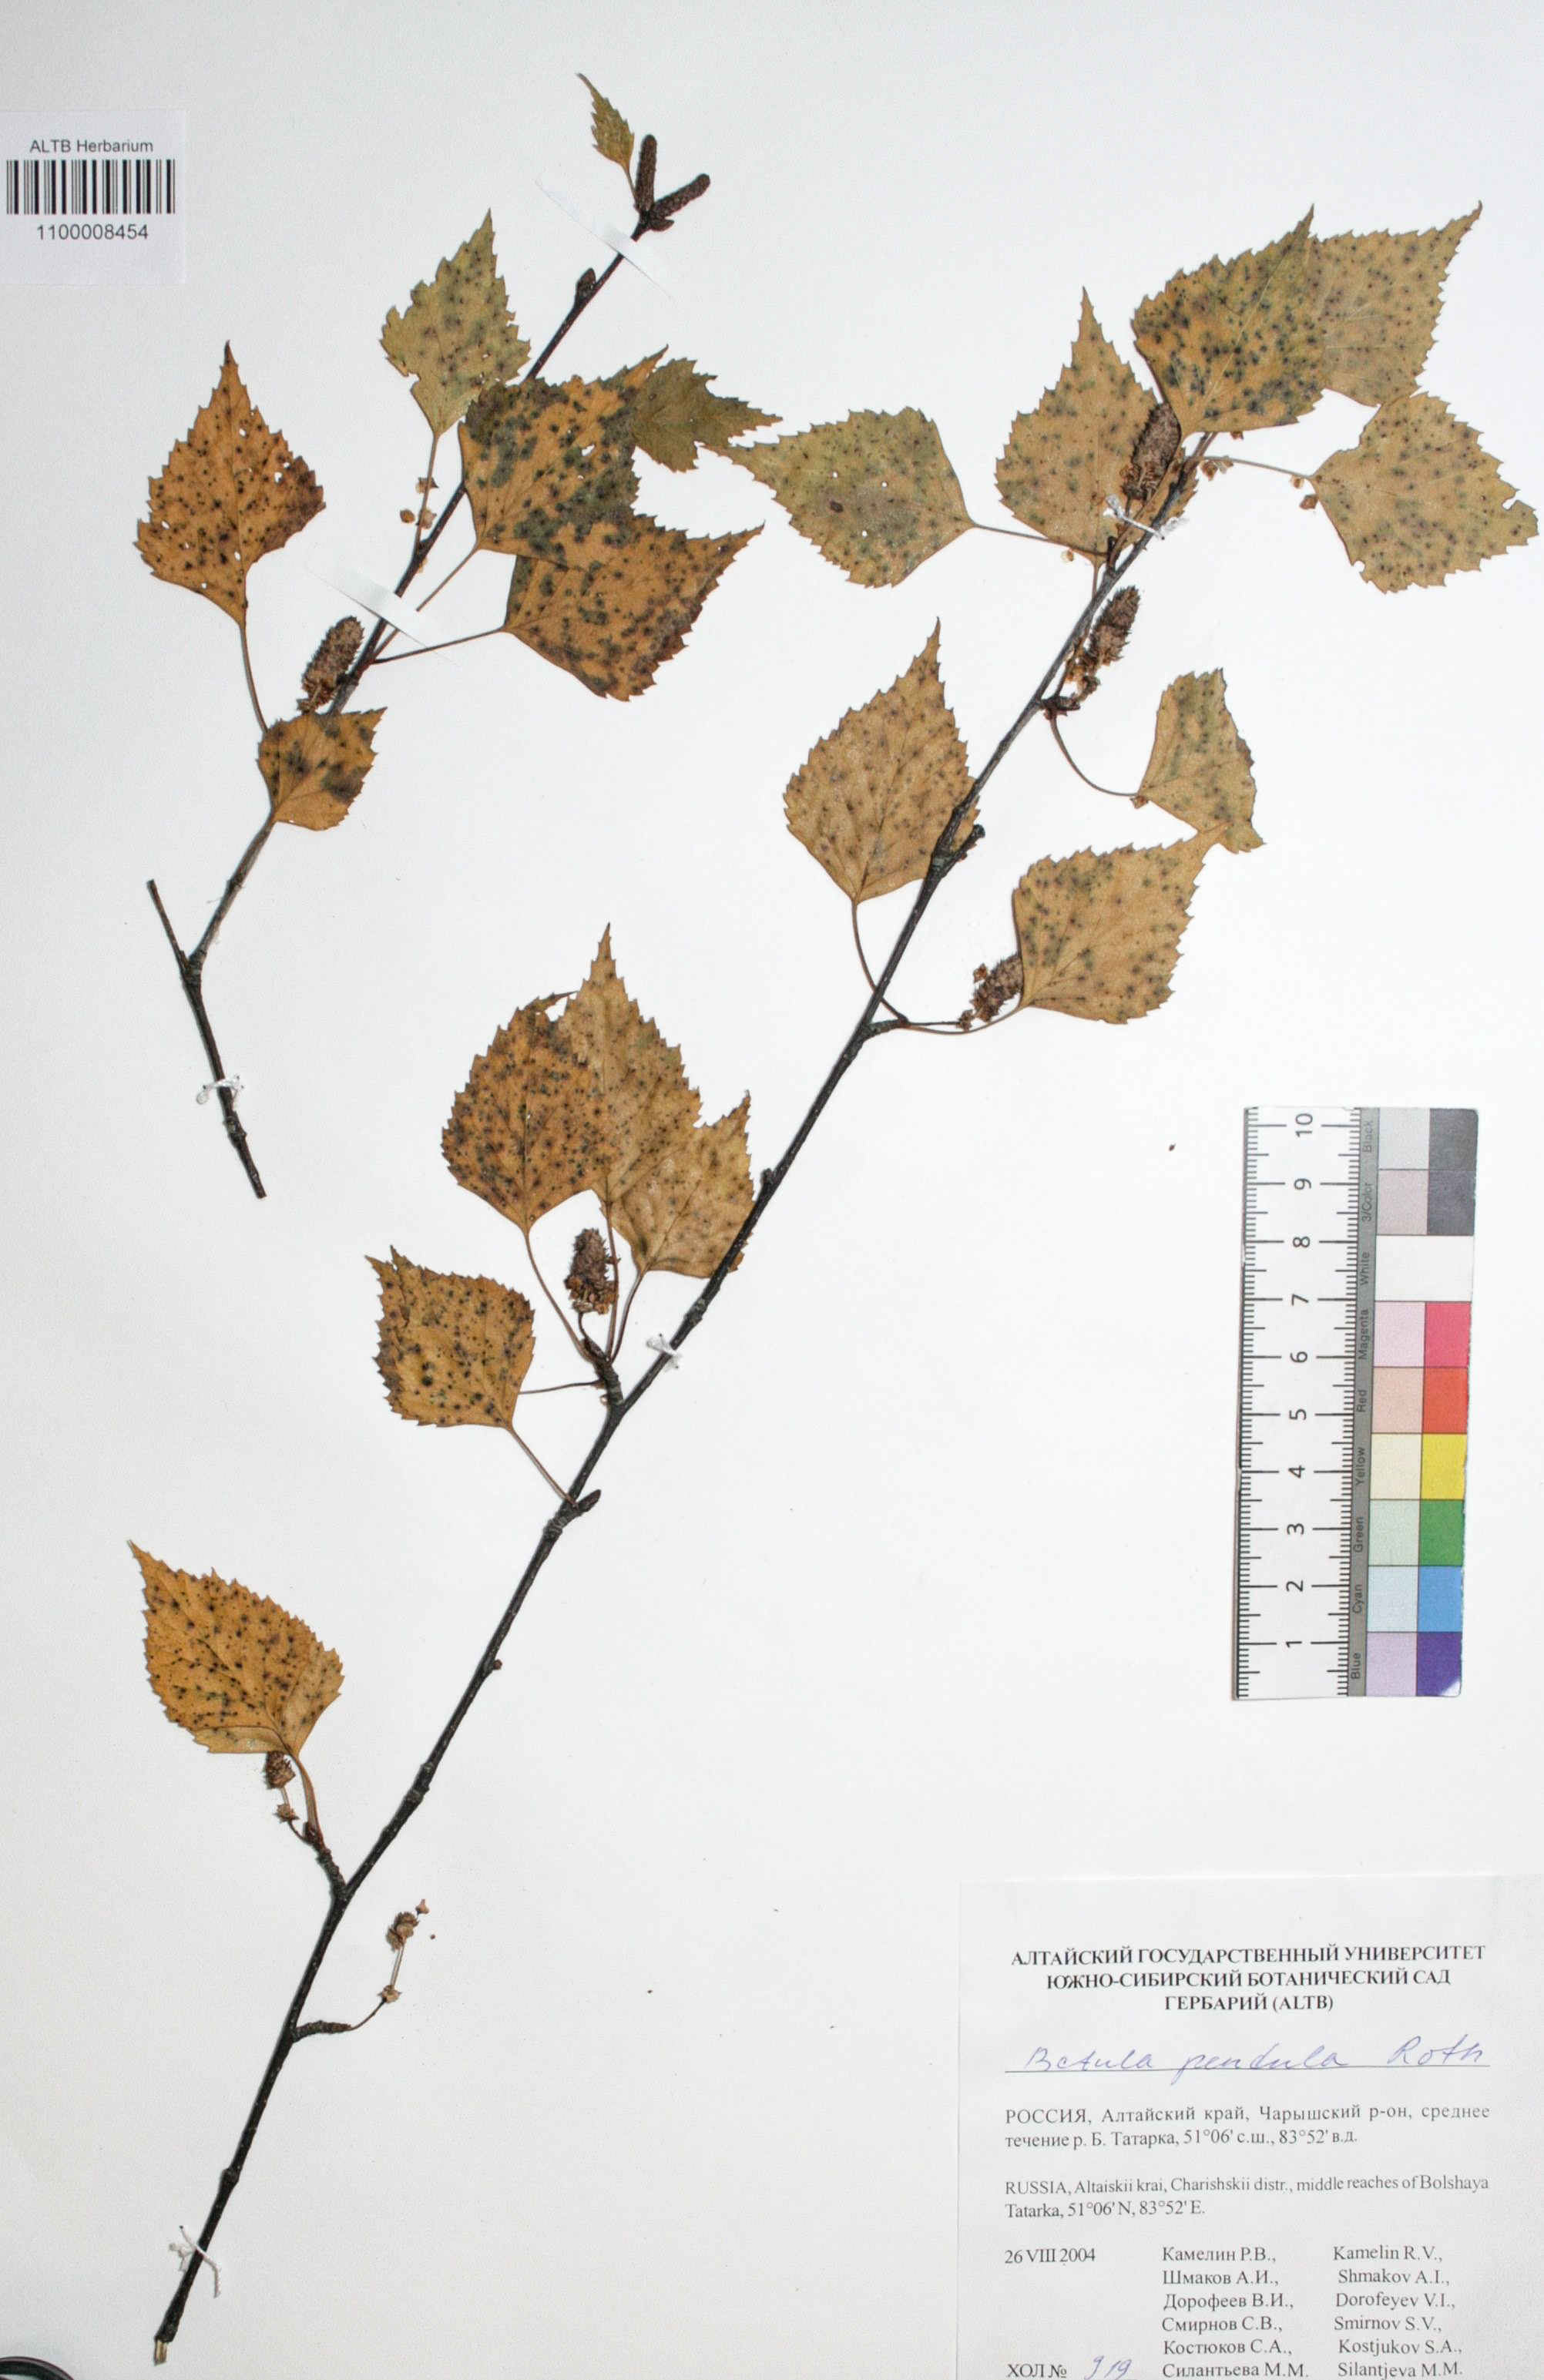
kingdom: Plantae
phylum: Tracheophyta
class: Magnoliopsida
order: Fagales
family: Betulaceae
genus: Betula
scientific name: Betula pendula
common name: Silver birch
